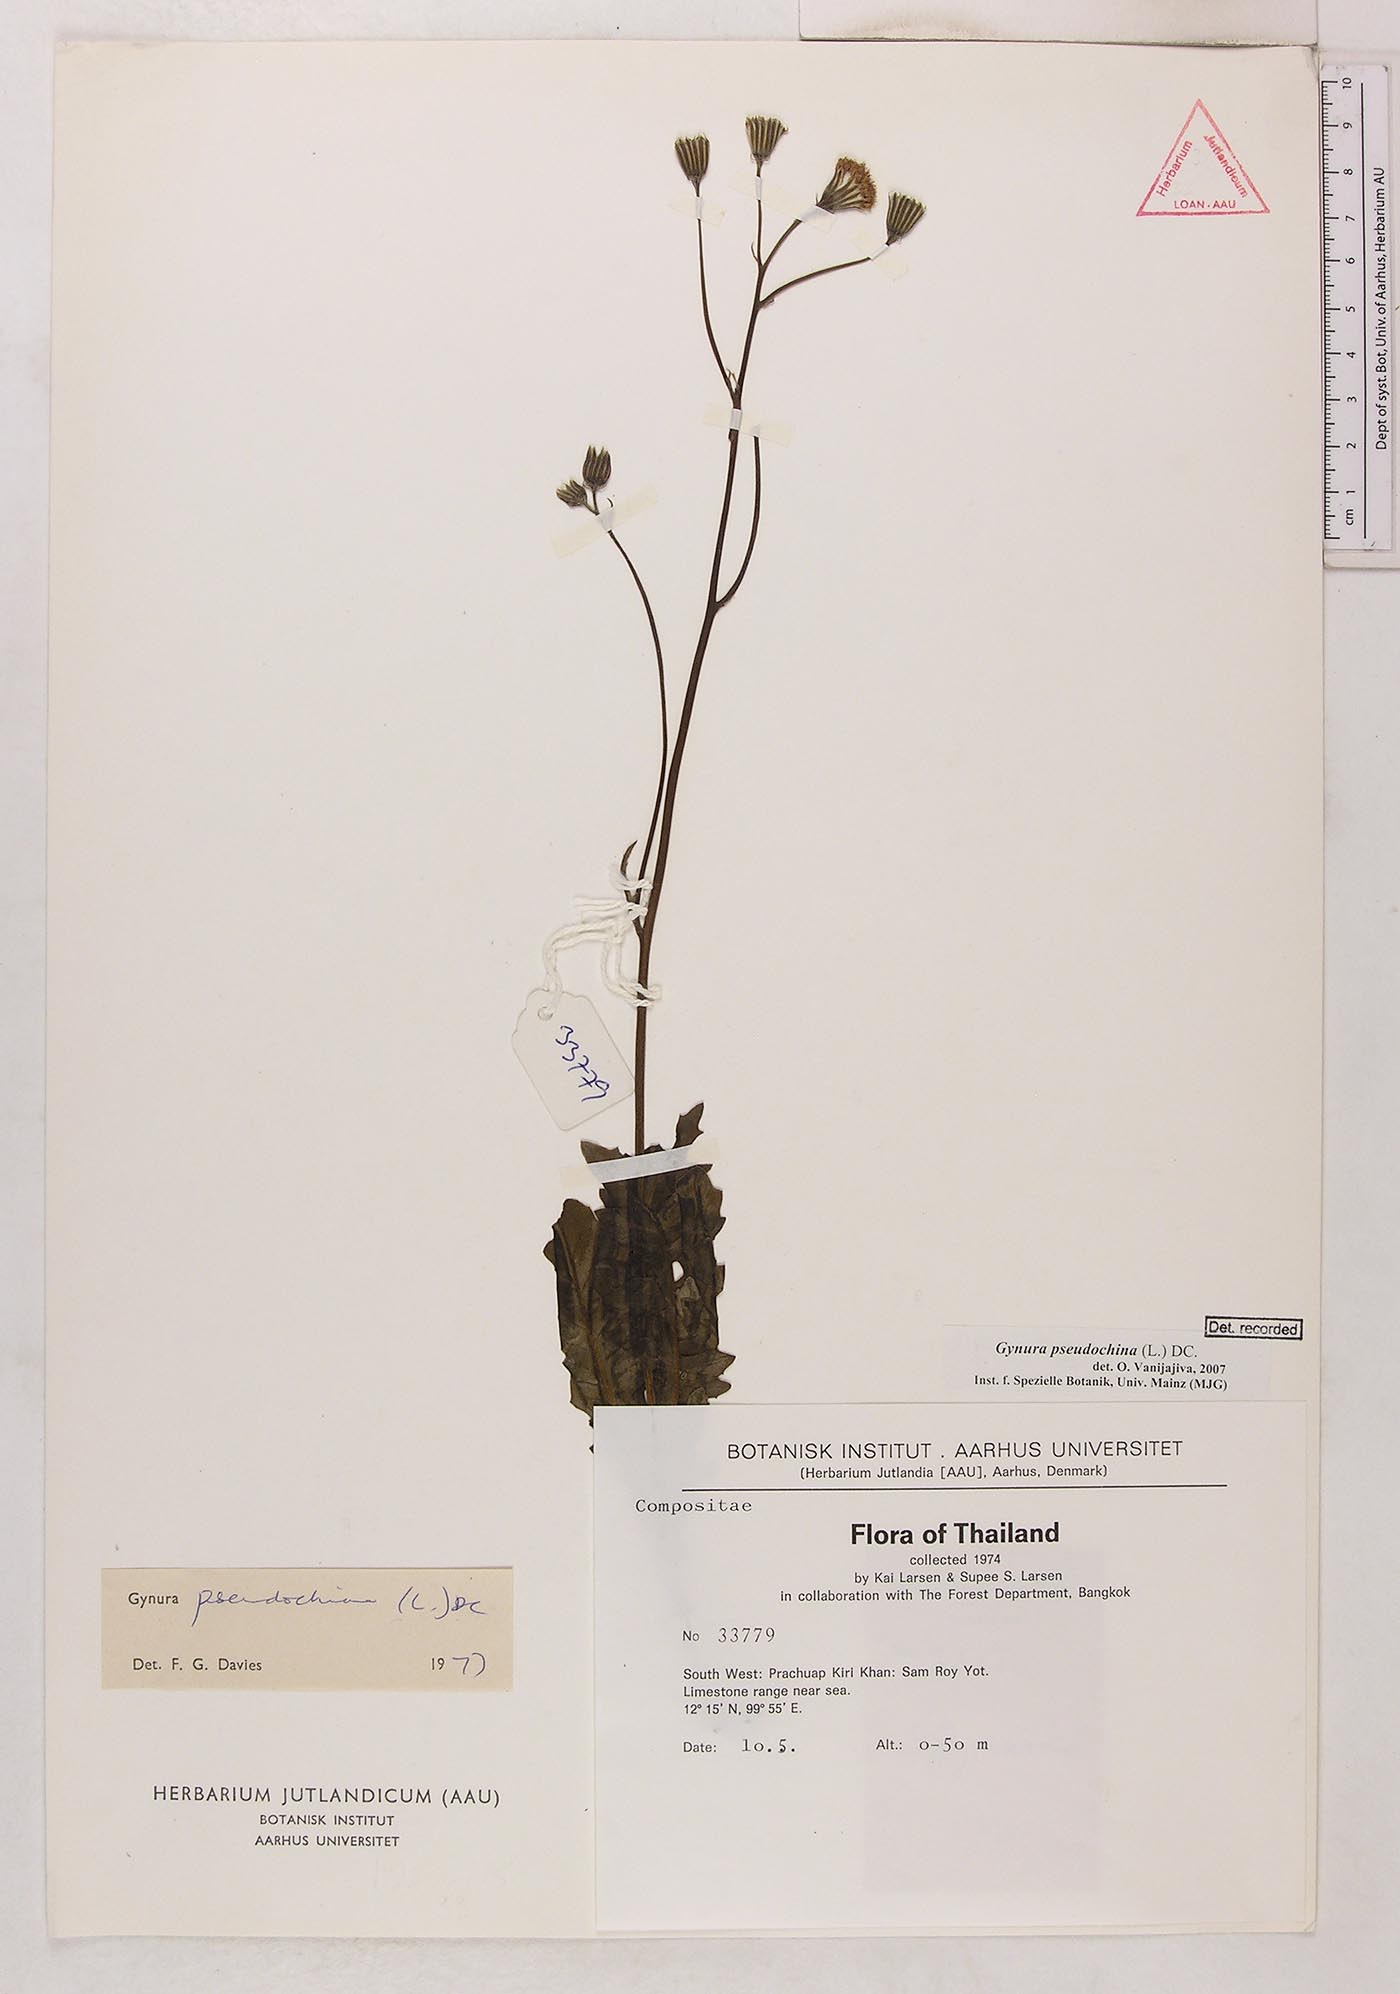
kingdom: Plantae
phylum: Tracheophyta
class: Magnoliopsida
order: Asterales
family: Asteraceae
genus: Gynura
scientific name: Gynura pseudochina
